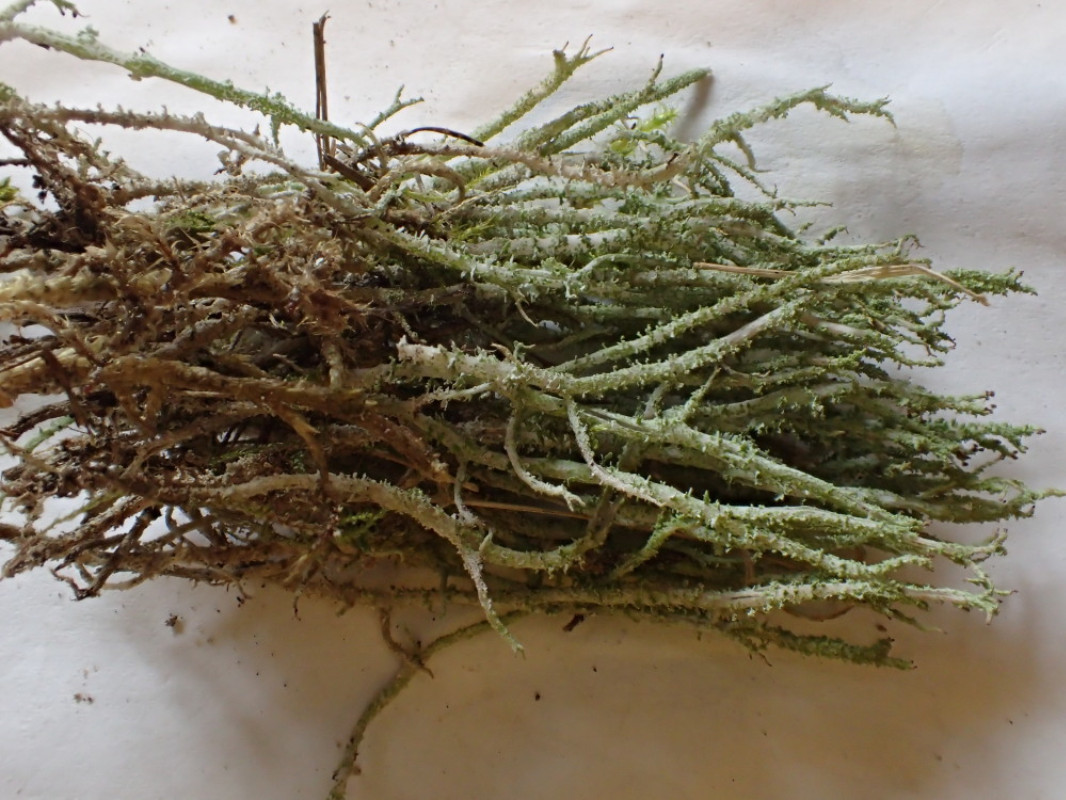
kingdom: Fungi
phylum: Ascomycota
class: Lecanoromycetes
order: Lecanorales
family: Cladoniaceae
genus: Cladonia
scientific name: Cladonia scabriuscula
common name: ru bægerlav
